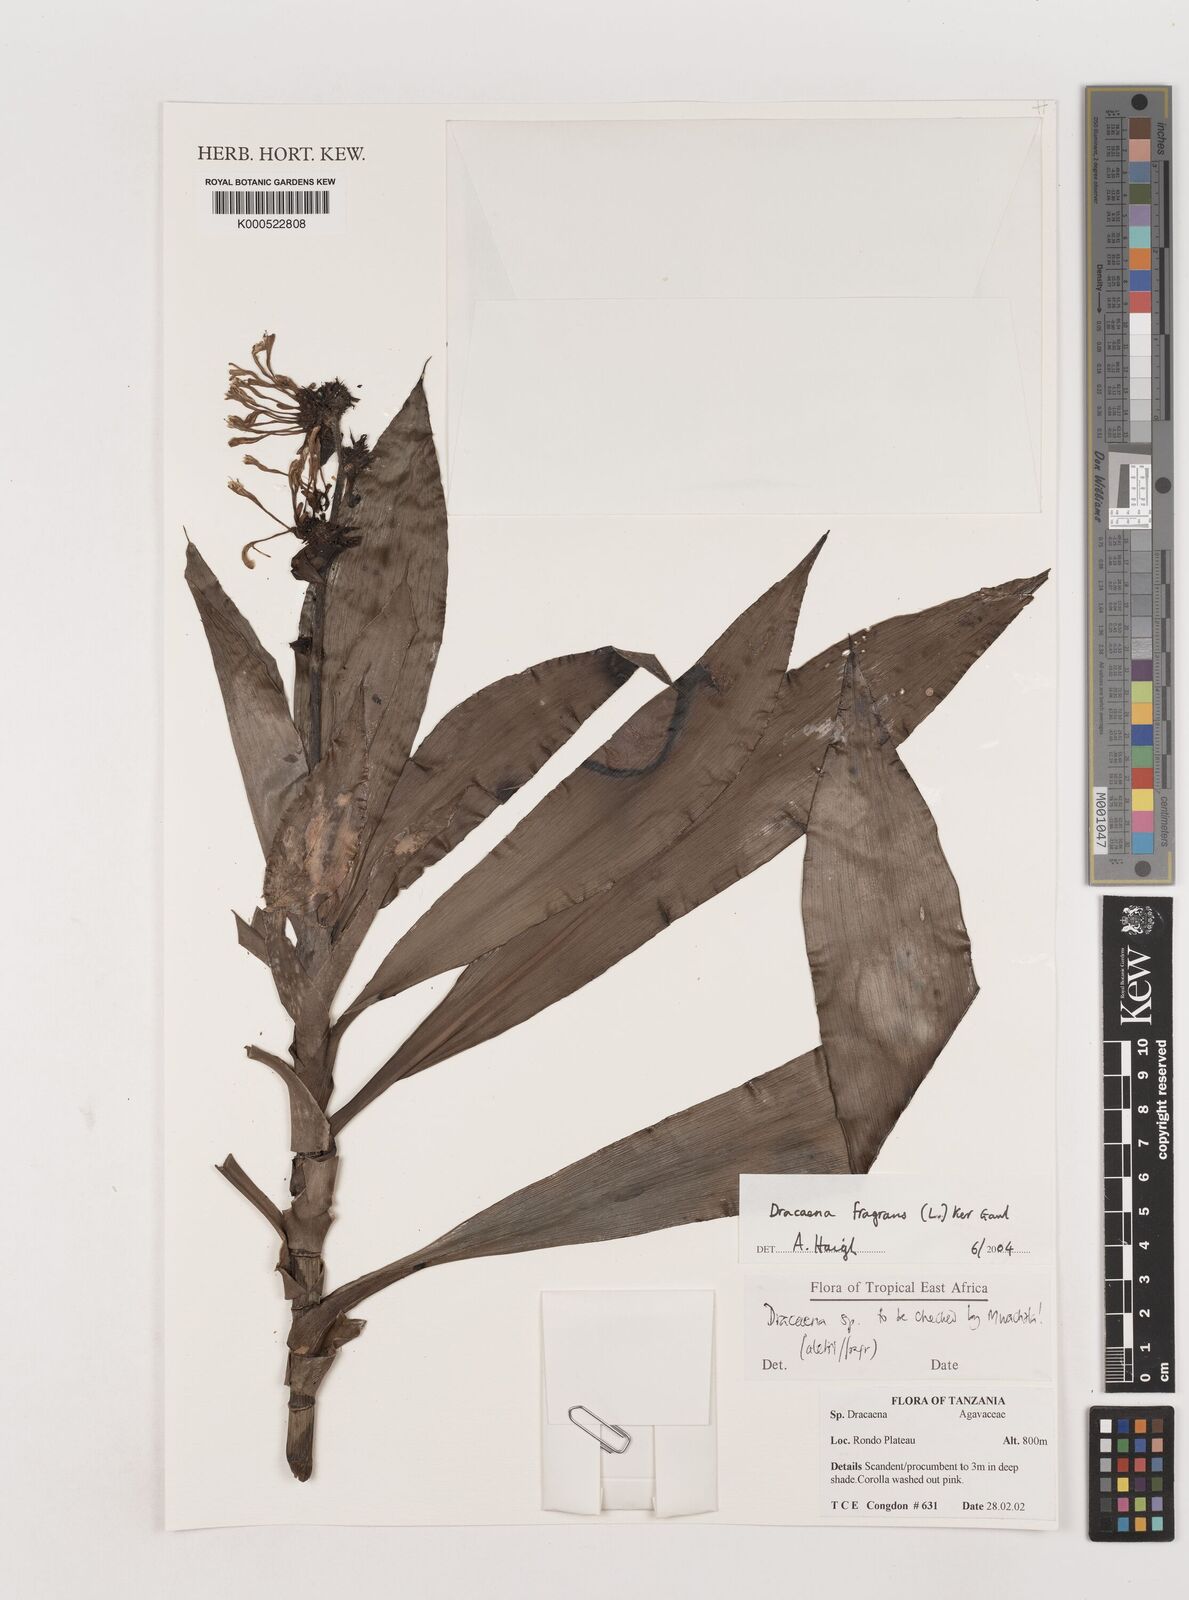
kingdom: Plantae
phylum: Tracheophyta
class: Liliopsida
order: Asparagales
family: Asparagaceae
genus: Dracaena
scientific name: Dracaena fragrans
